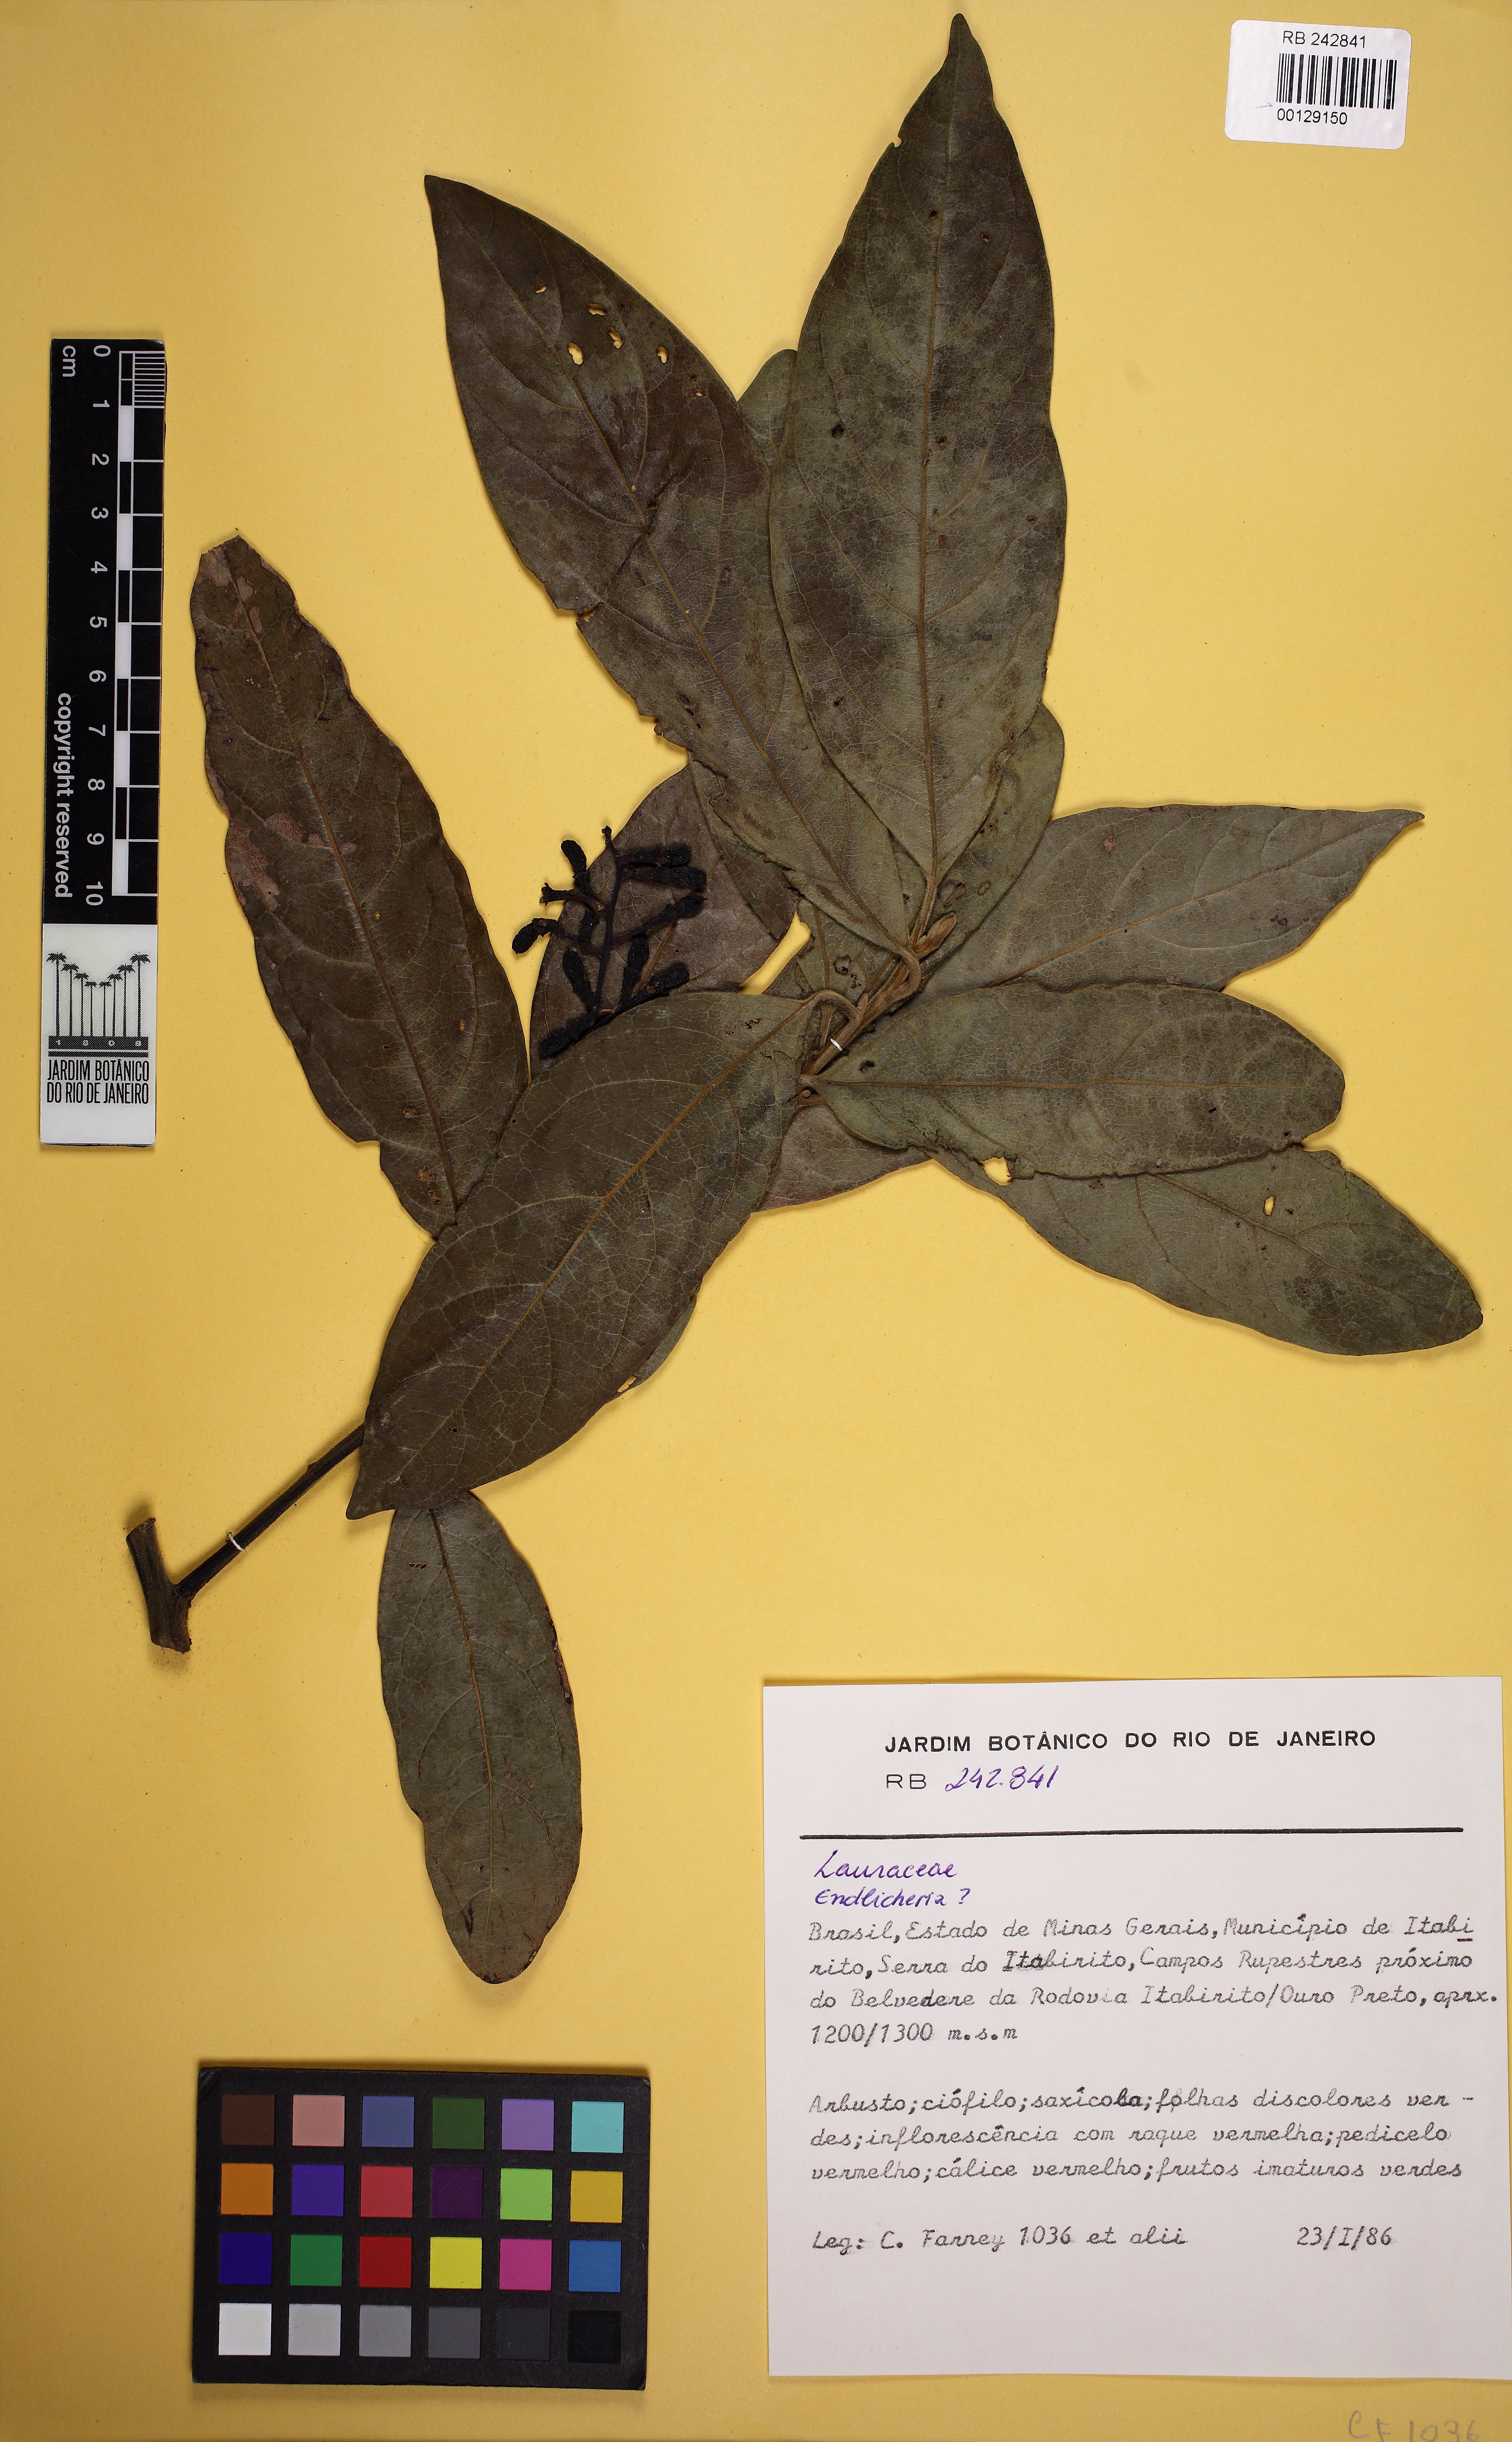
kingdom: Plantae
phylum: Tracheophyta
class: Magnoliopsida
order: Laurales
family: Lauraceae
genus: Endlicheria
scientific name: Endlicheria
